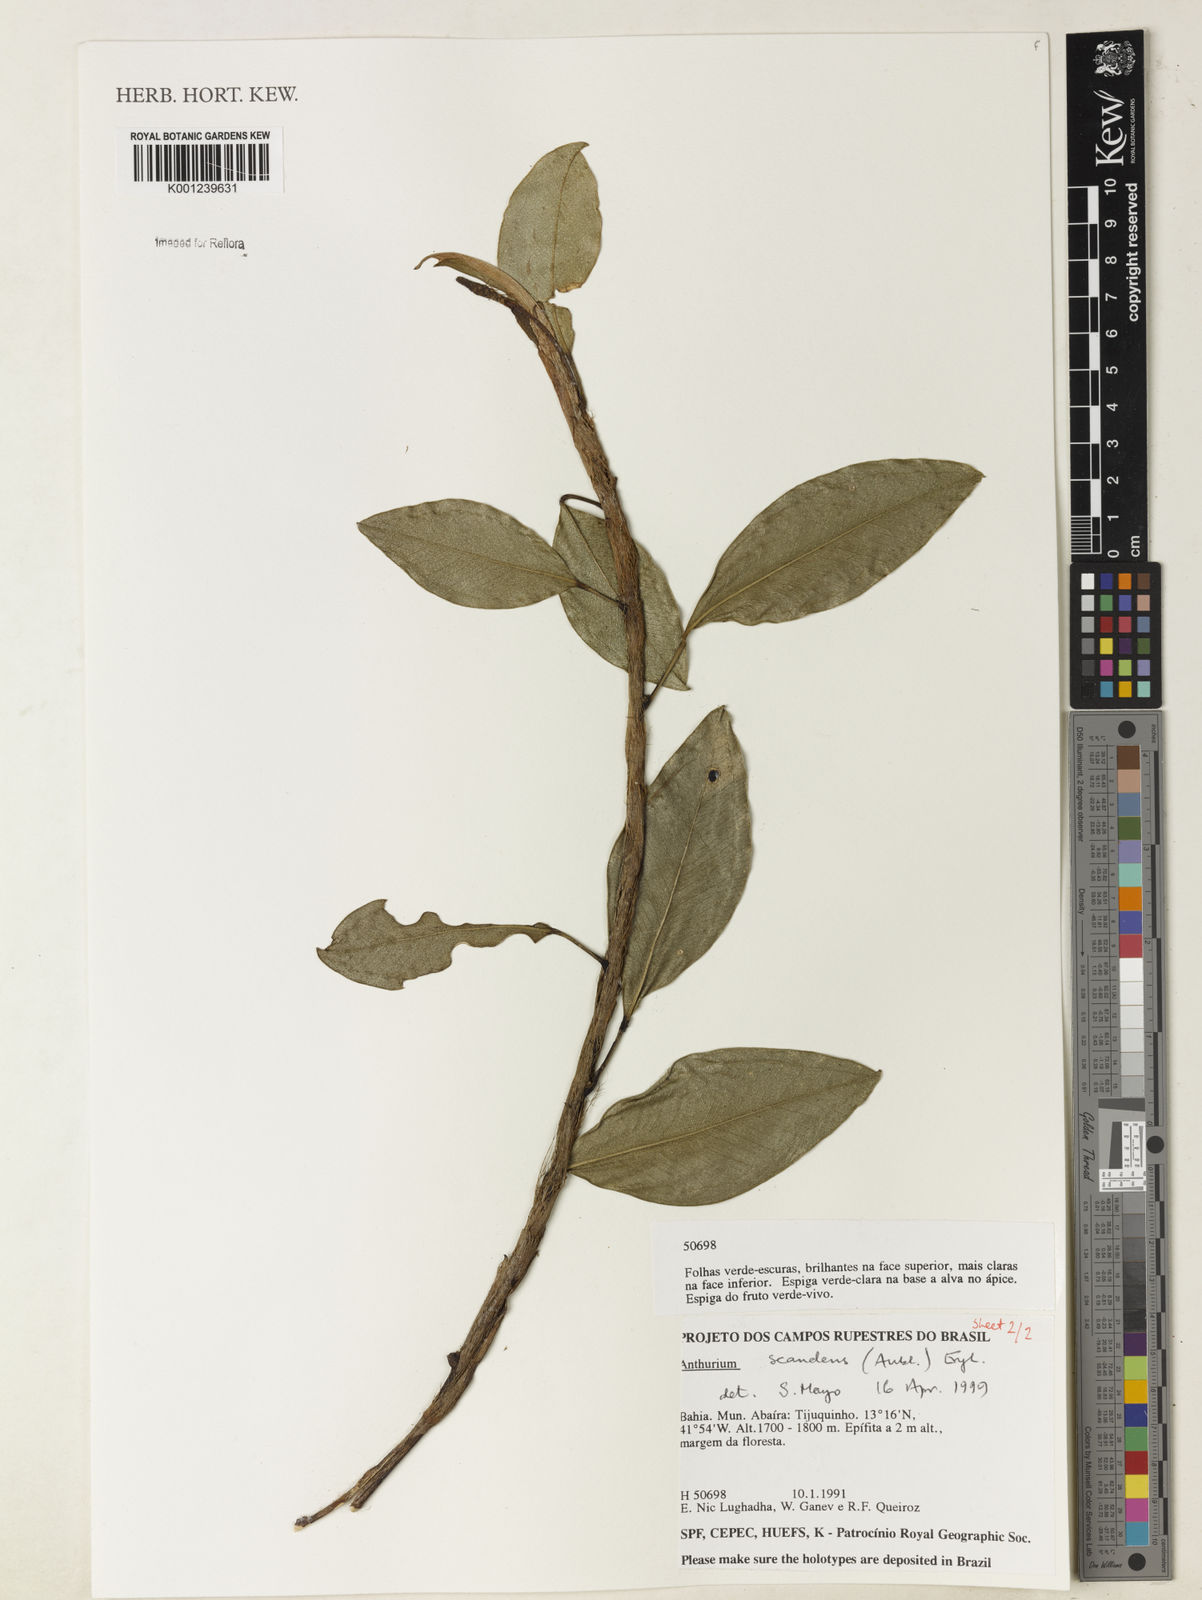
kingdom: Plantae
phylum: Tracheophyta
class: Liliopsida
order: Alismatales
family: Araceae
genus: Anthurium
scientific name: Anthurium scandens
